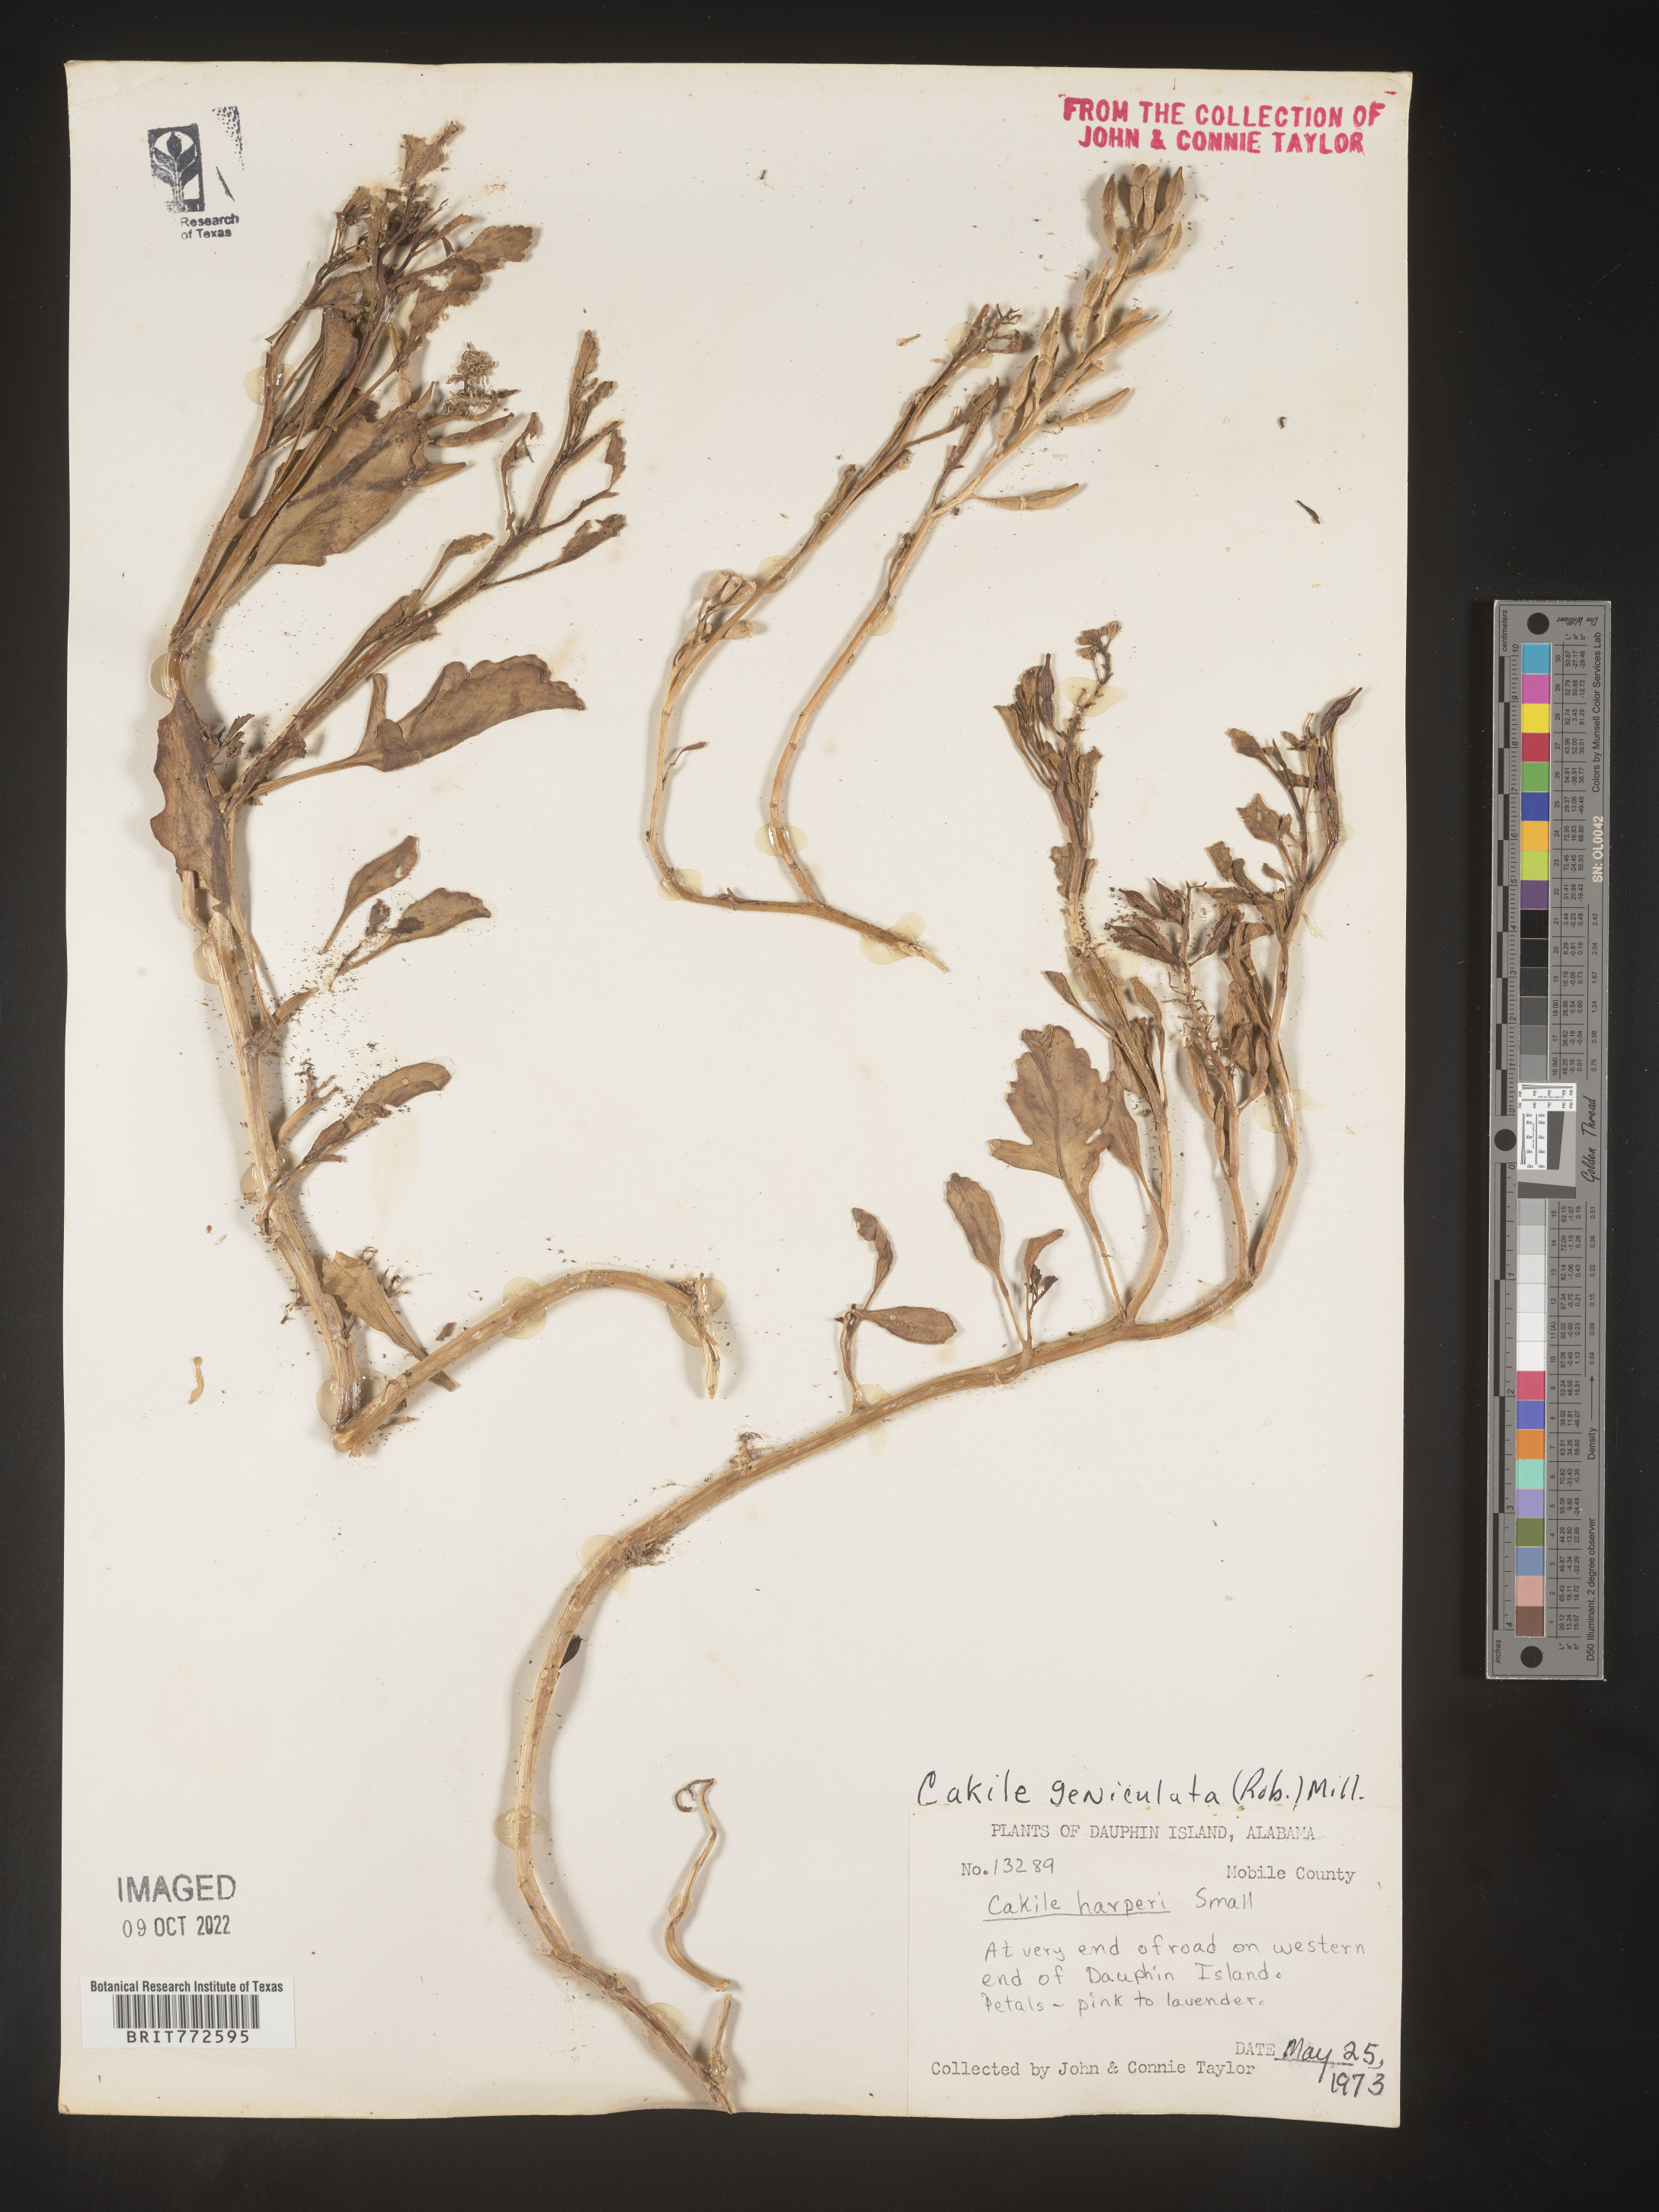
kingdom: Plantae
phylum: Tracheophyta
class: Magnoliopsida
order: Brassicales
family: Brassicaceae
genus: Cakile
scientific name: Cakile geniculata
